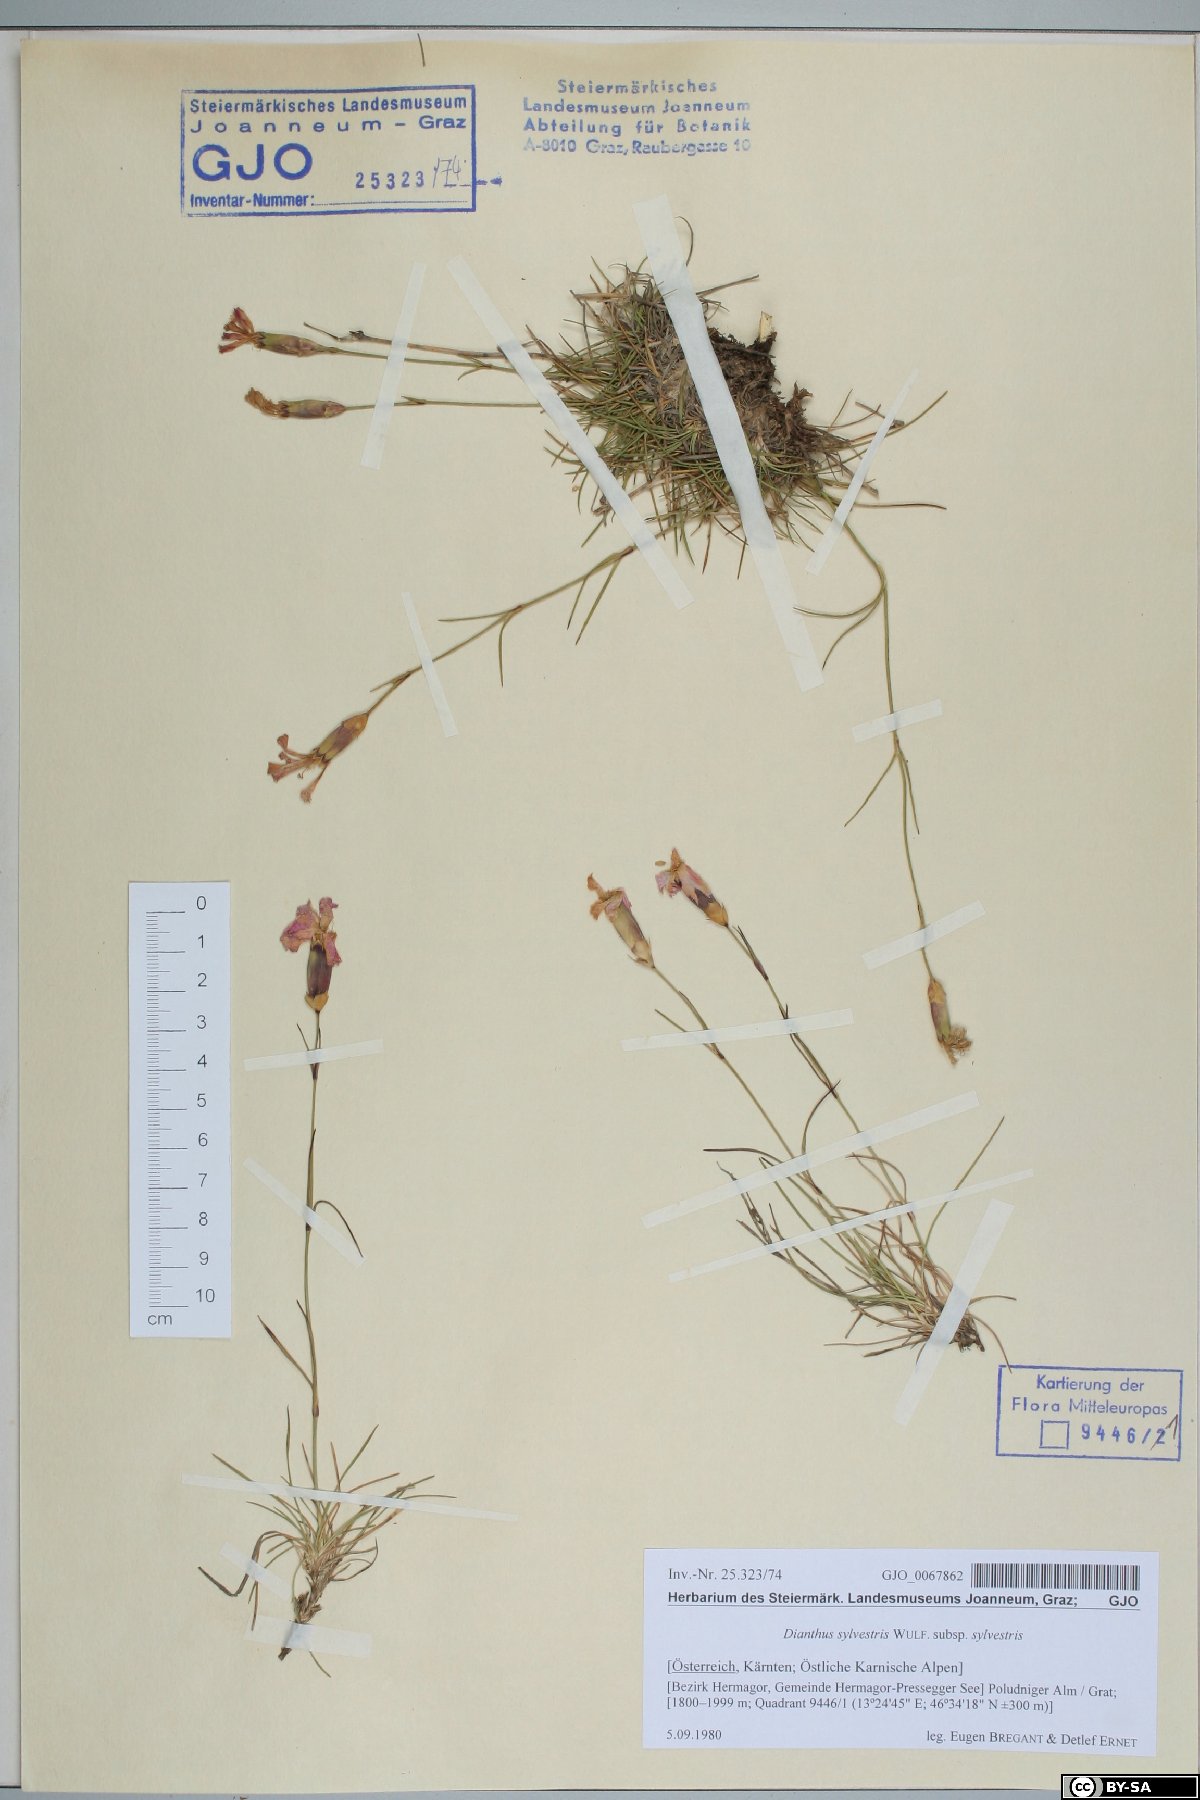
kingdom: Plantae
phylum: Tracheophyta
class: Magnoliopsida
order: Caryophyllales
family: Caryophyllaceae
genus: Dianthus
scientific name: Dianthus sylvestris
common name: Wood pink
